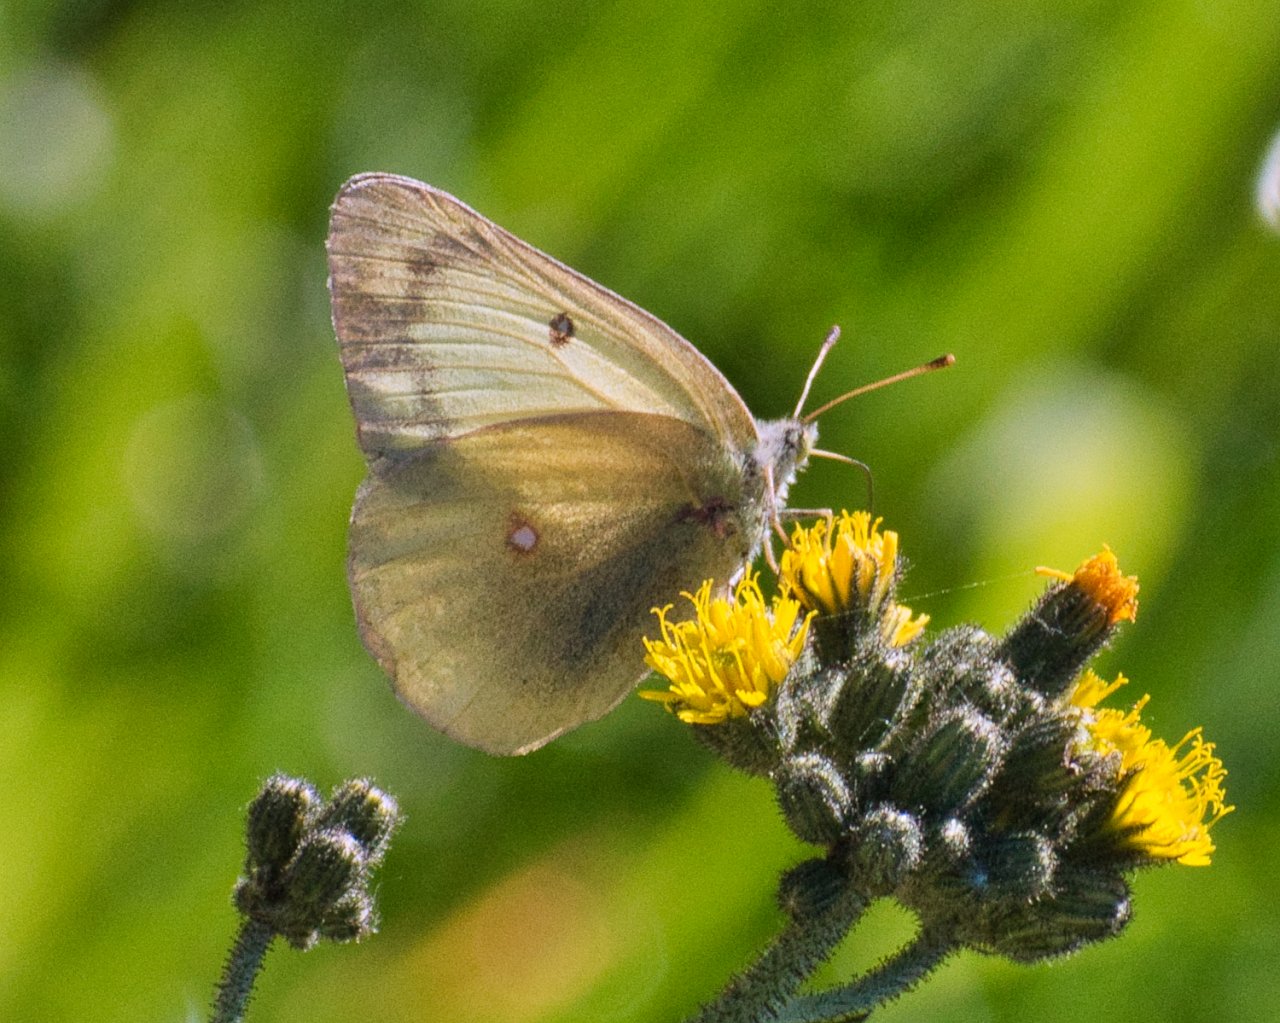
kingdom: Animalia
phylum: Arthropoda
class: Insecta
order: Lepidoptera
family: Pieridae
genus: Colias
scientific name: Colias
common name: Clouded Yellows
